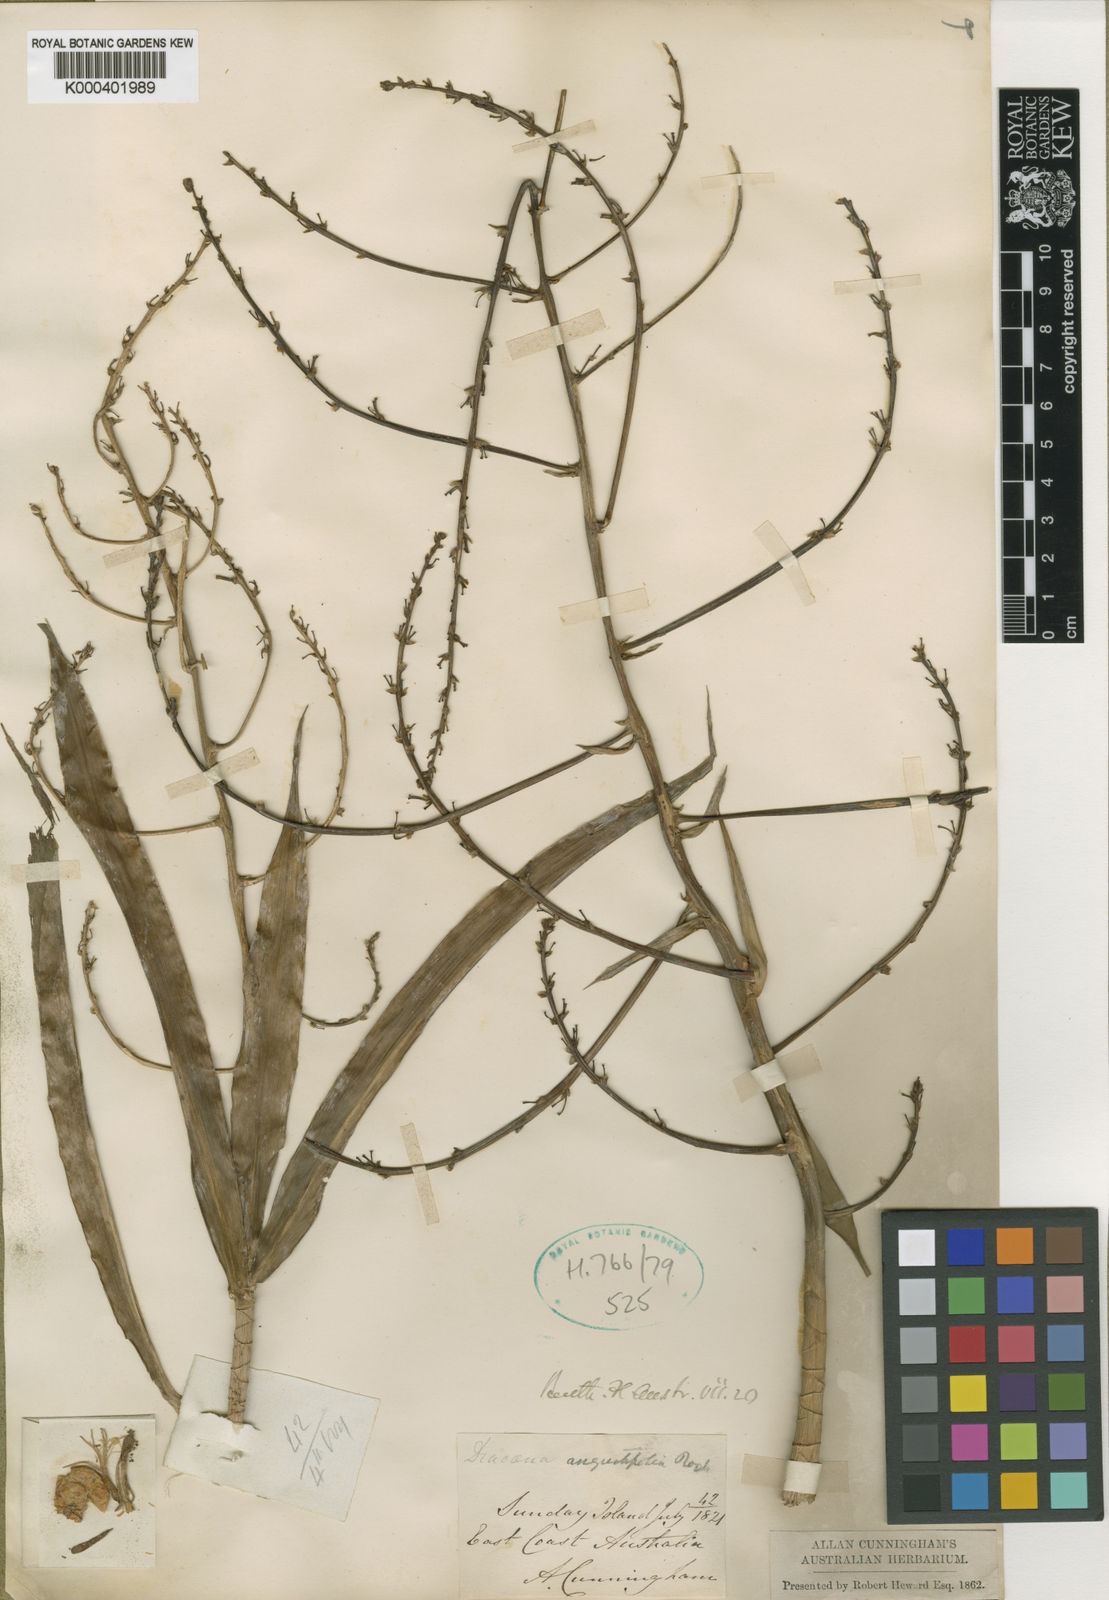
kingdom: Plantae
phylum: Tracheophyta
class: Liliopsida
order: Asparagales
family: Asparagaceae
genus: Dracaena
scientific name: Dracaena angustifolia
